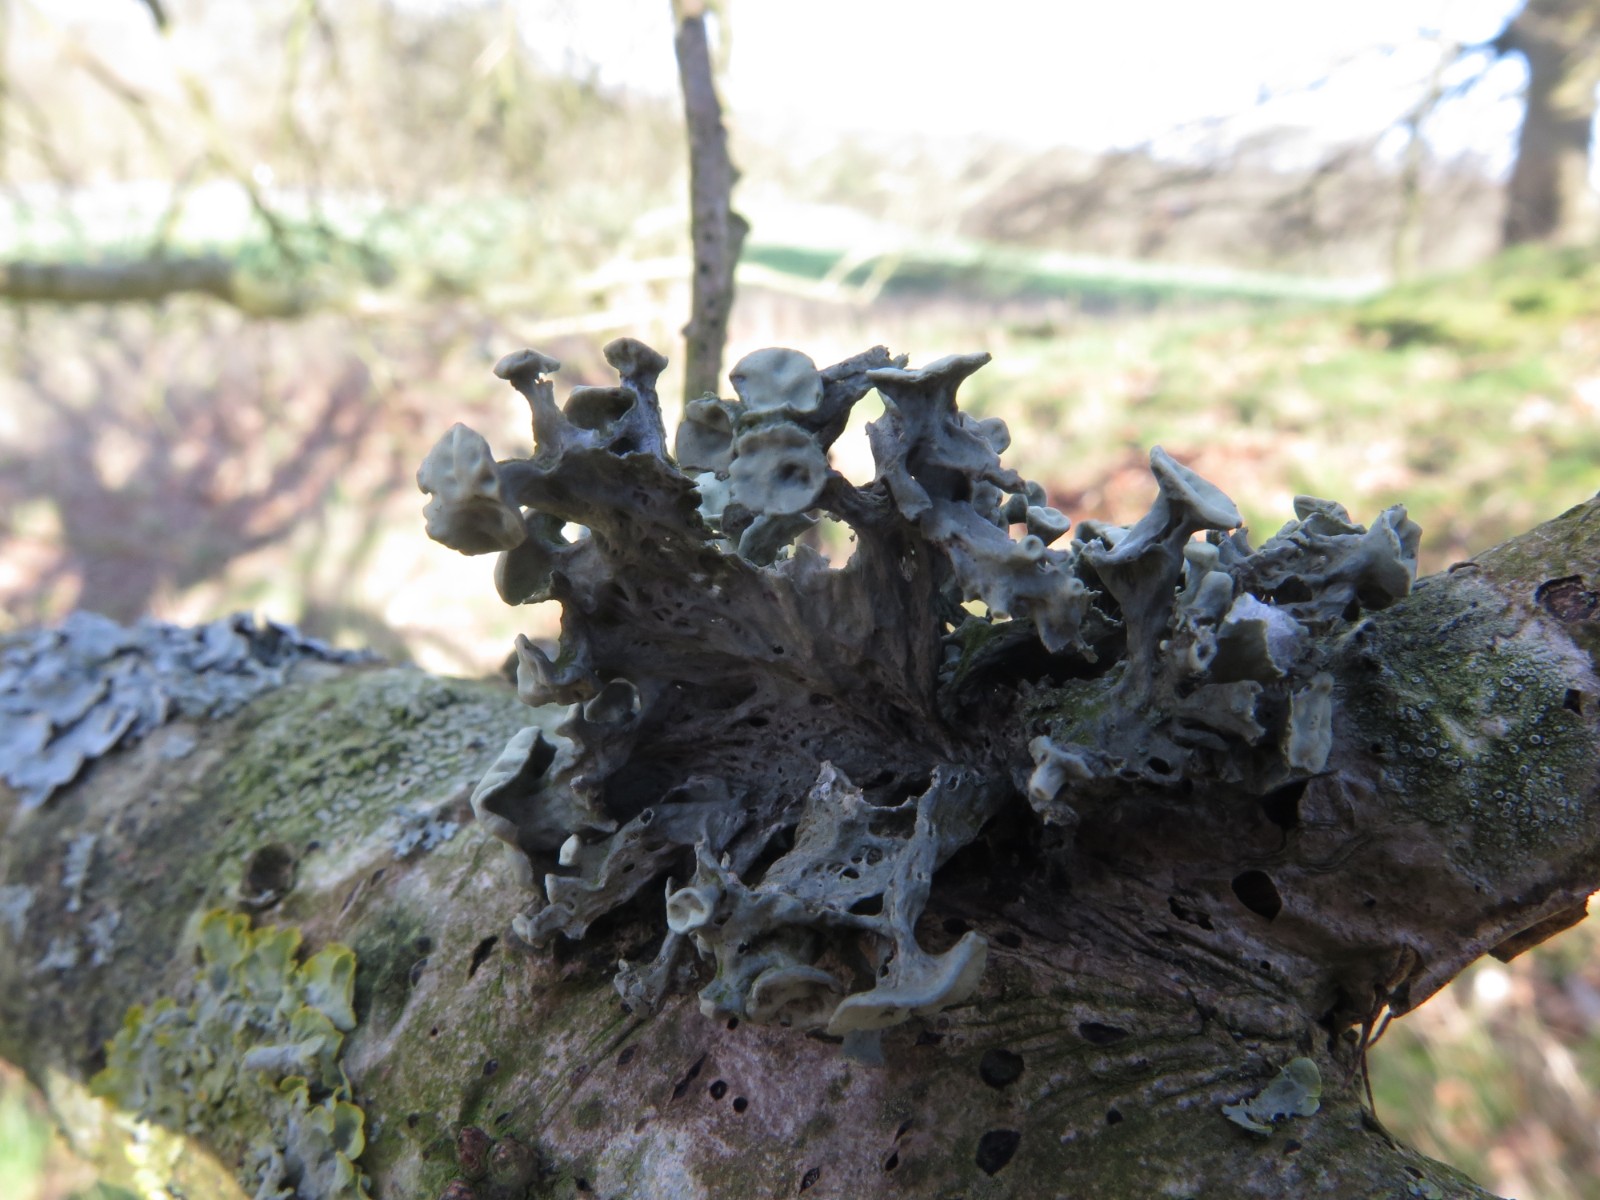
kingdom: Fungi
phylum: Ascomycota
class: Lecanoromycetes
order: Lecanorales
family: Ramalinaceae
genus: Ramalina
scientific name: Ramalina fastigiata
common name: tue-grenlav
